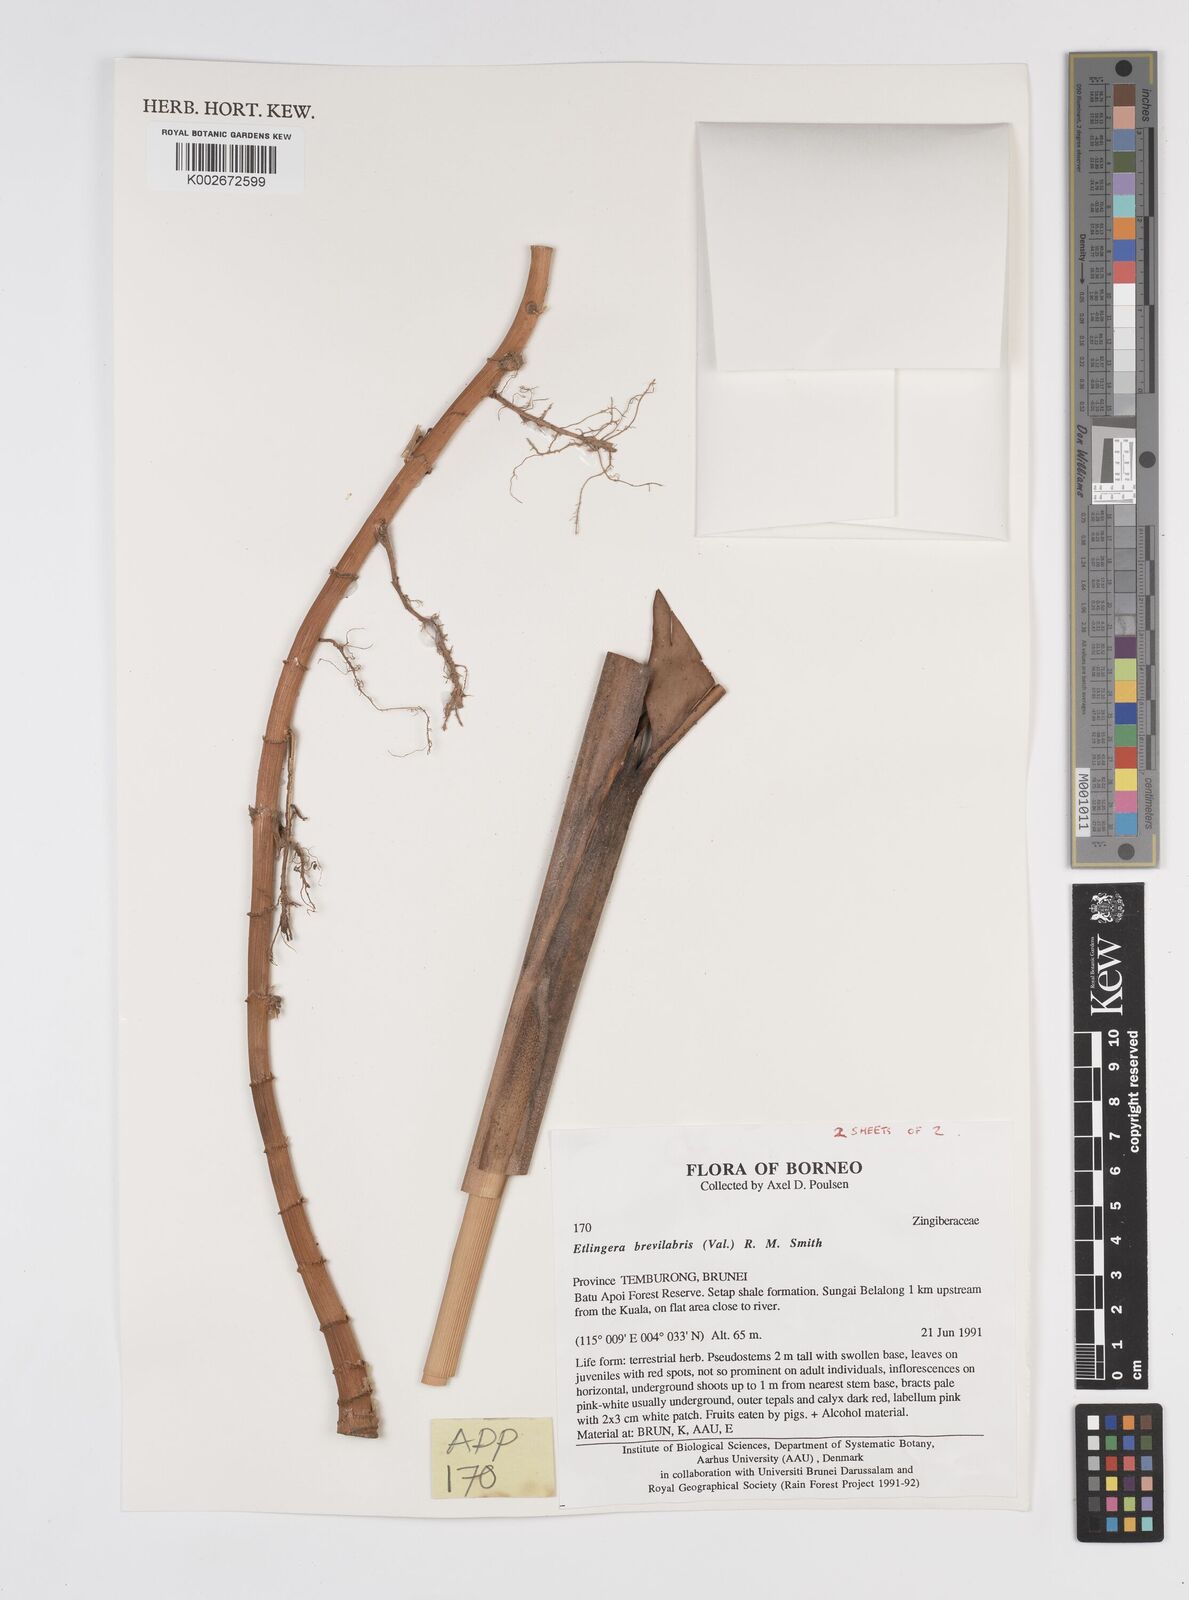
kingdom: Plantae
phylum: Tracheophyta
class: Liliopsida
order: Zingiberales
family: Zingiberaceae
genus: Etlingera
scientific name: Etlingera
